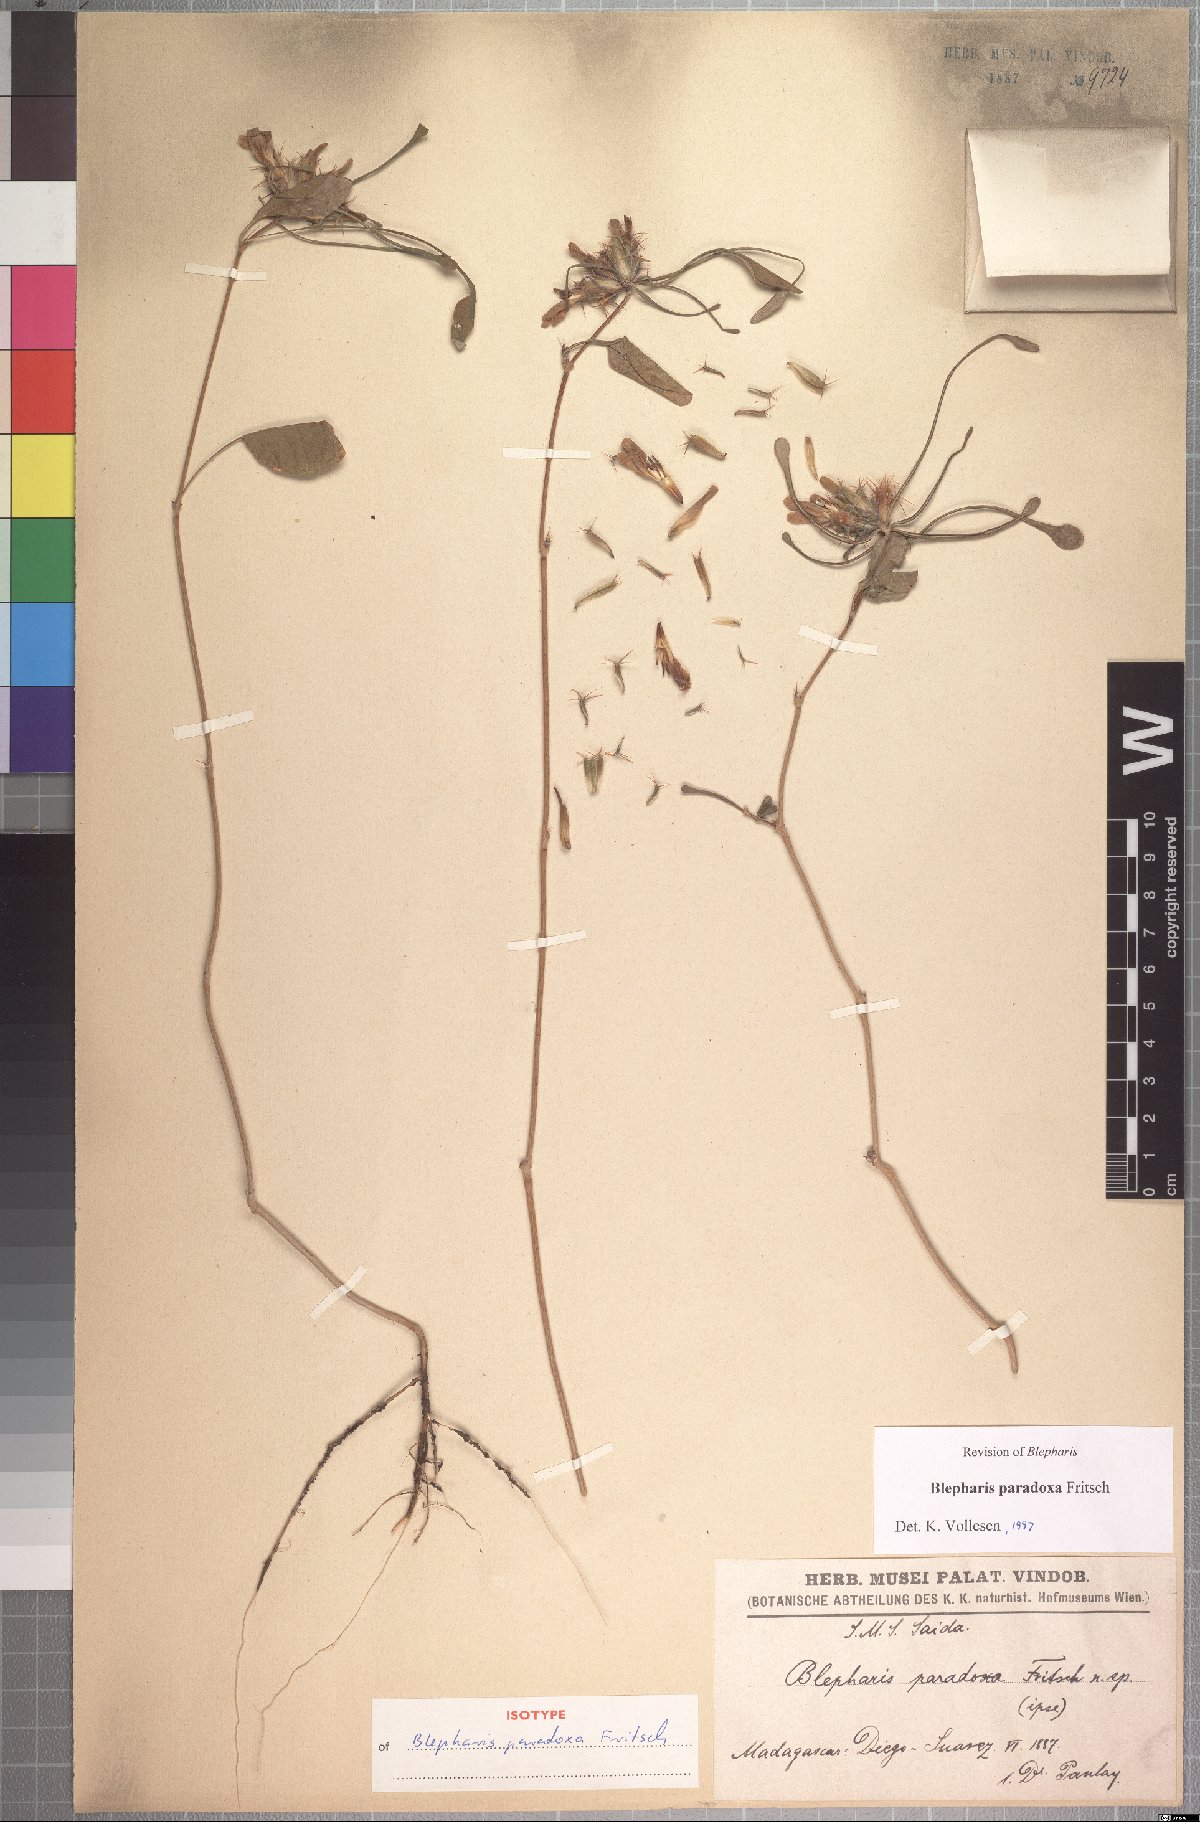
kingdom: Plantae
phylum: Tracheophyta
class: Magnoliopsida
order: Lamiales
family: Acanthaceae
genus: Blepharis
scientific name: Blepharis paradoxa
